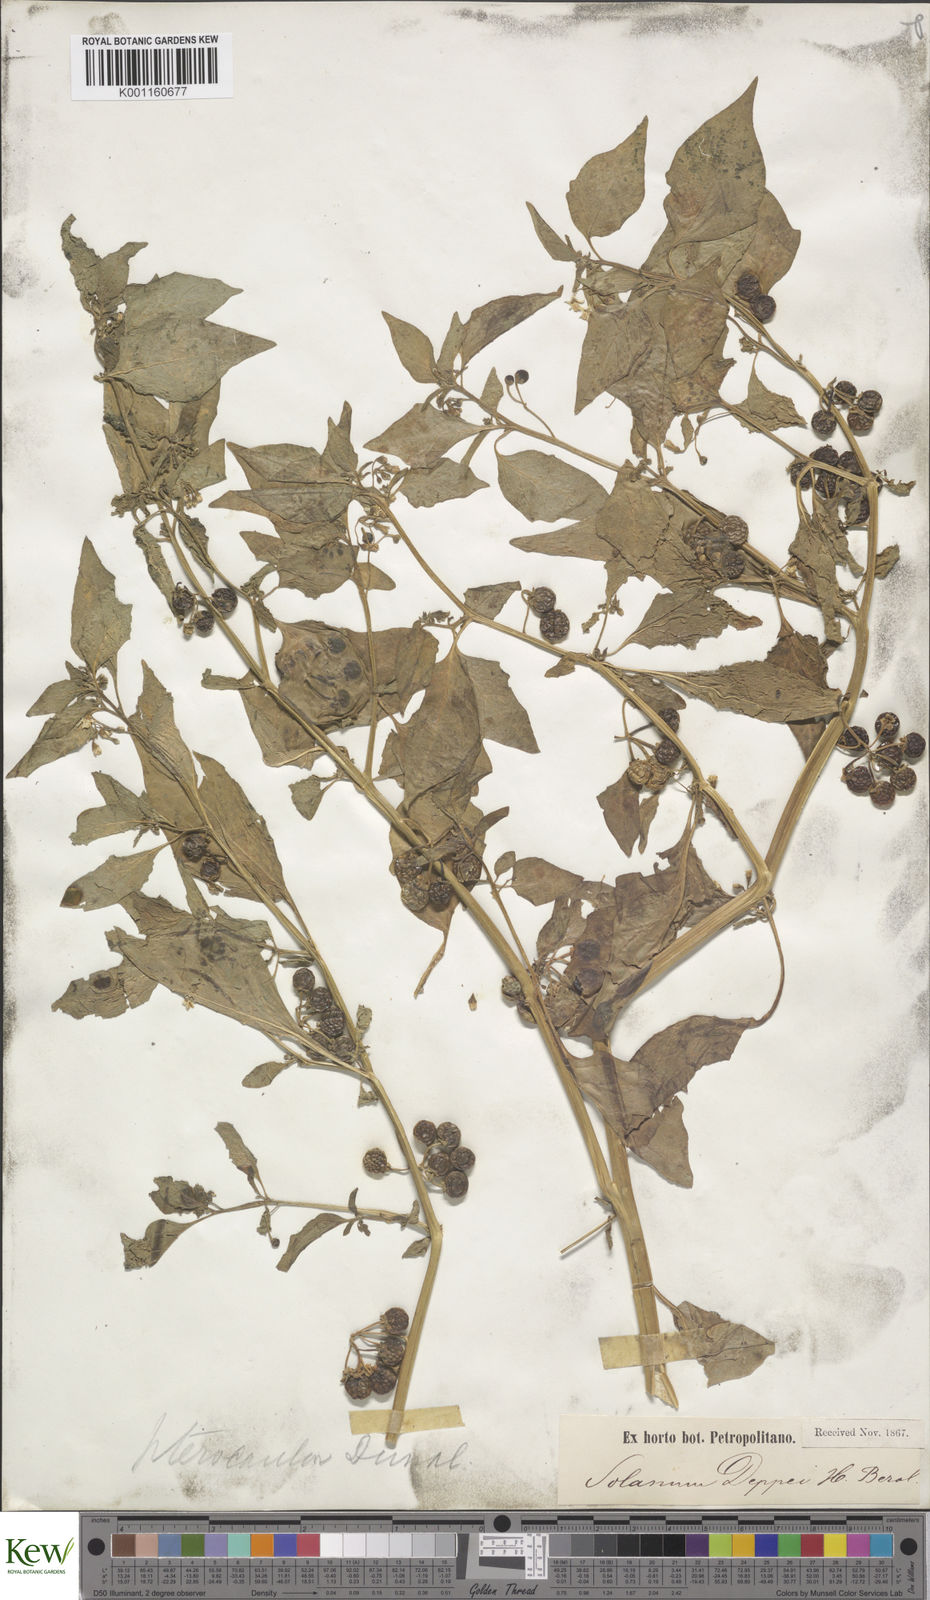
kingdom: Plantae
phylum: Tracheophyta
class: Magnoliopsida
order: Solanales
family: Solanaceae
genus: Solanum
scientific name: Solanum
